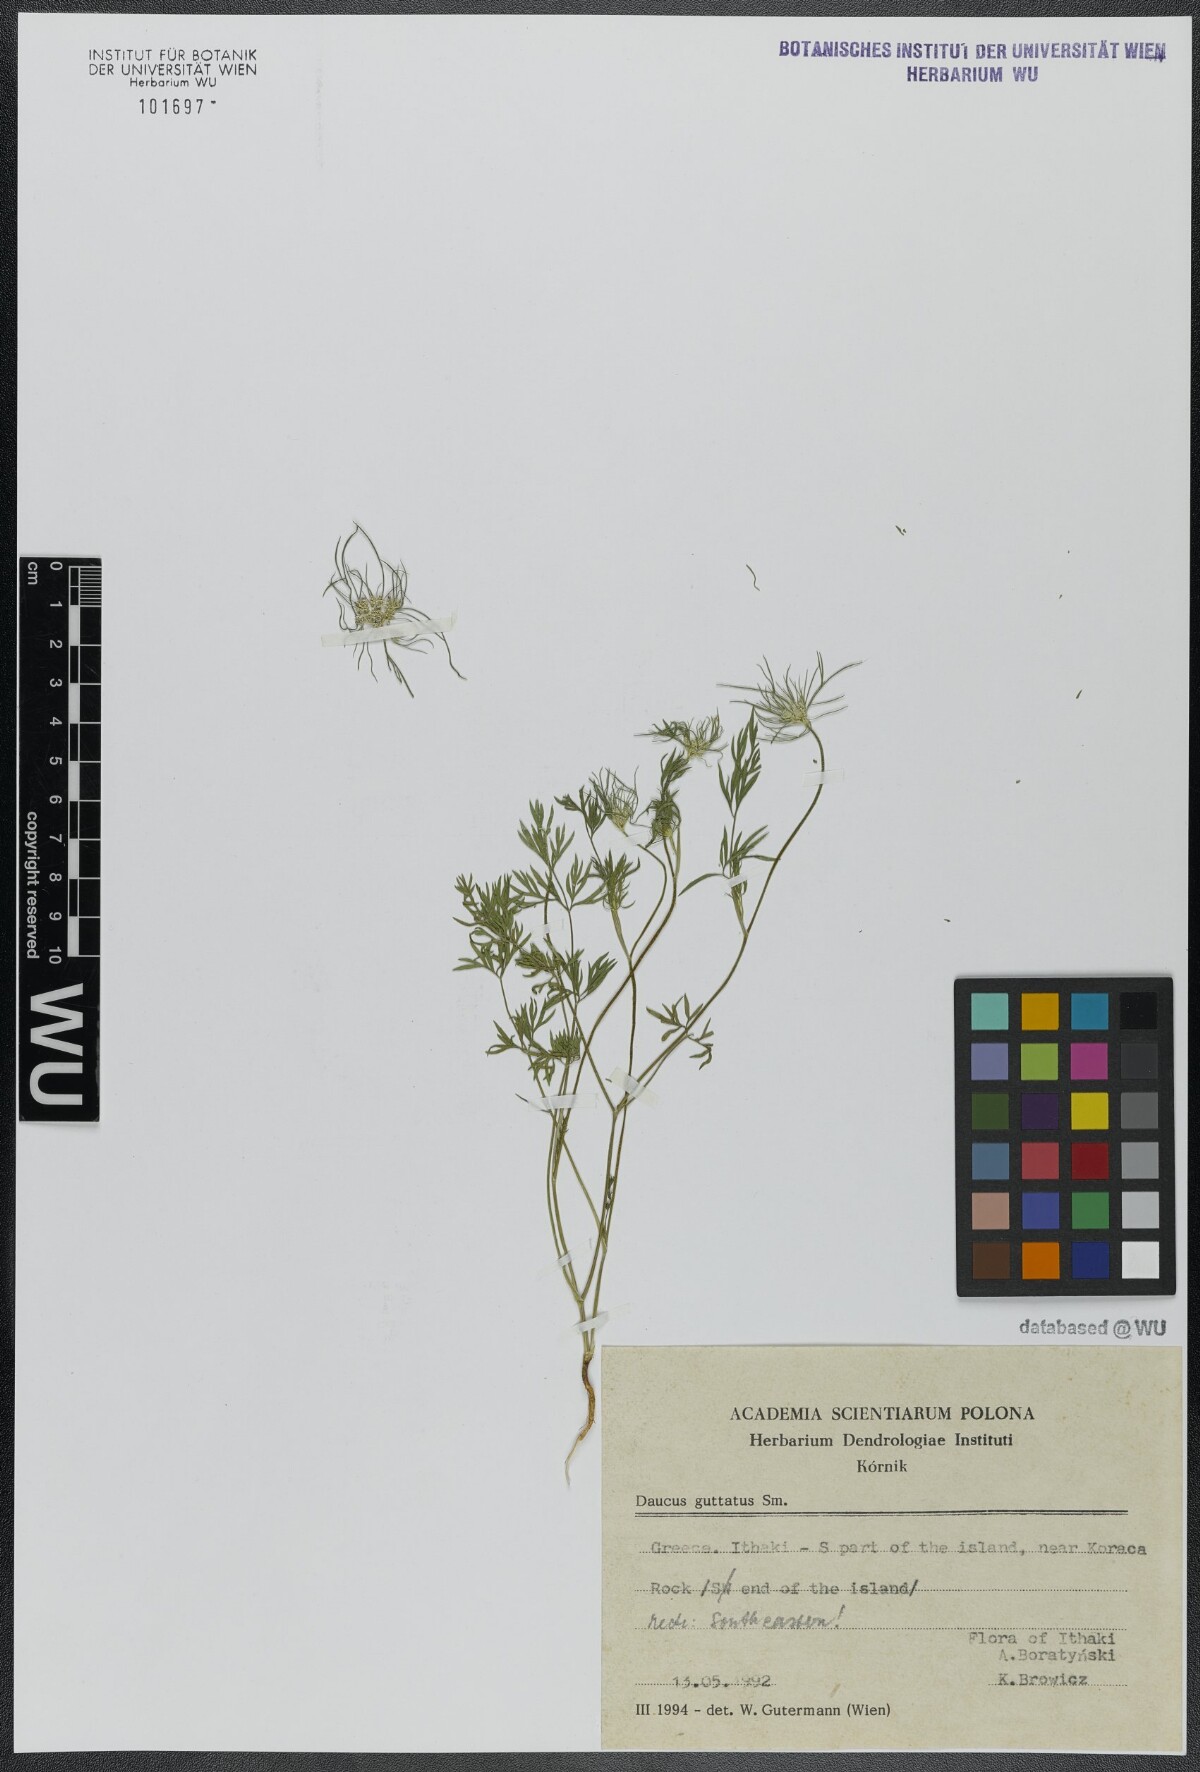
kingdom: Plantae
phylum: Tracheophyta
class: Magnoliopsida
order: Apiales
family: Apiaceae
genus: Daucus
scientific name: Daucus guttatus
